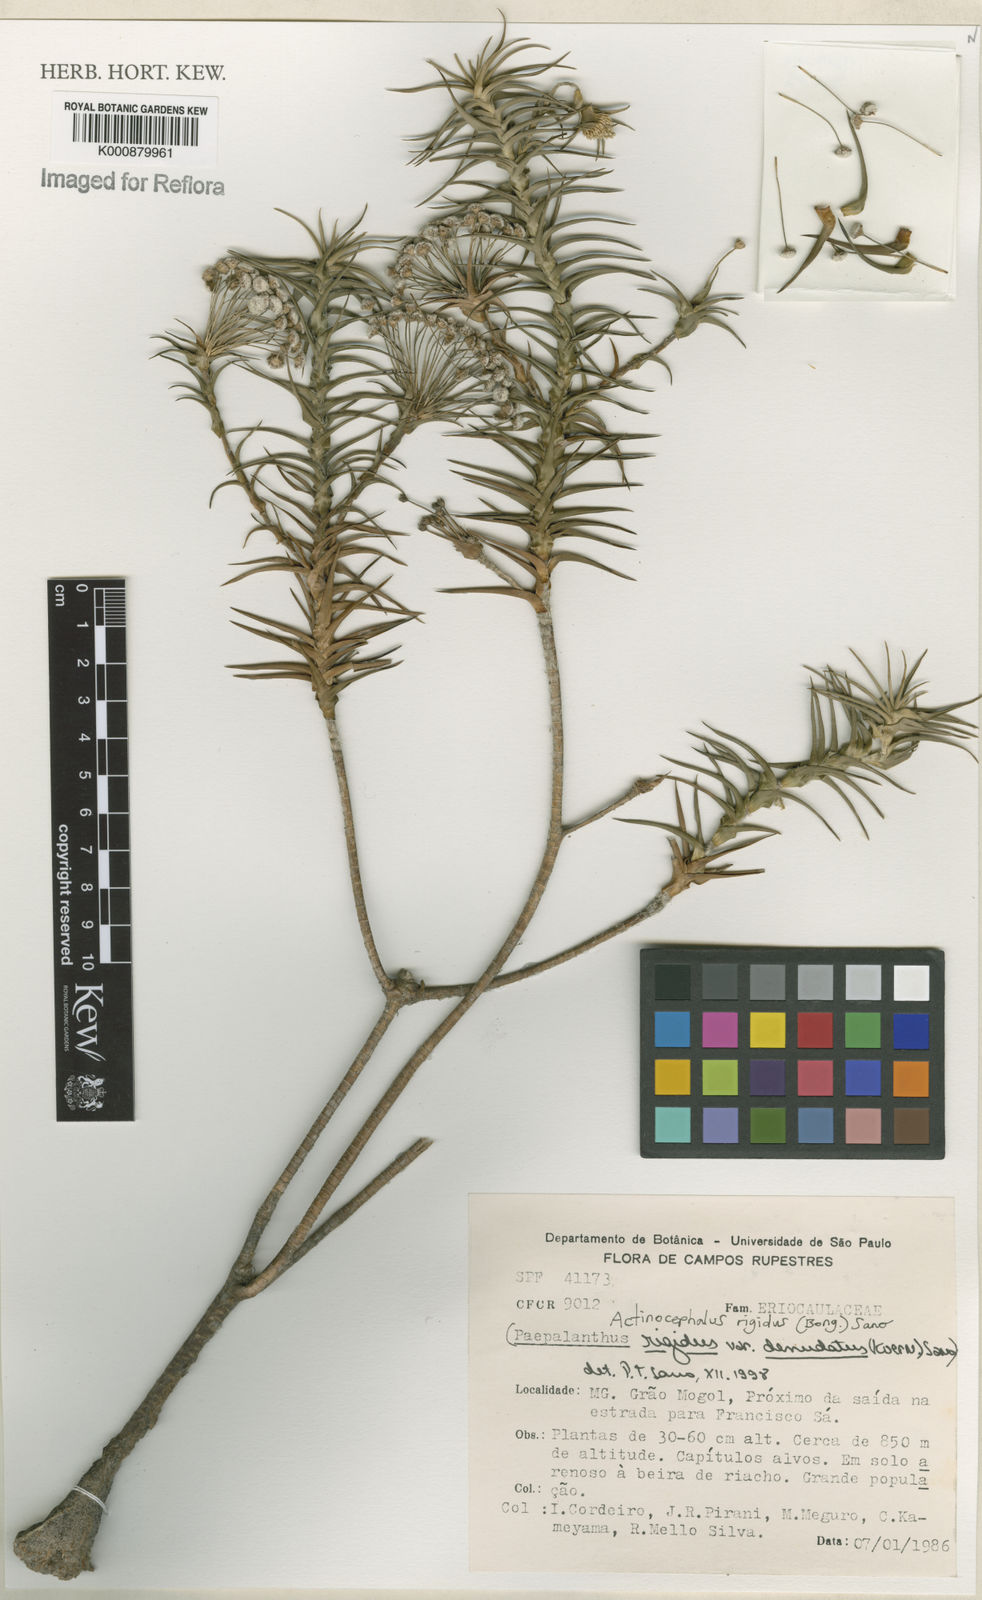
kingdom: Plantae
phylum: Tracheophyta
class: Liliopsida
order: Poales
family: Eriocaulaceae
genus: Paepalanthus
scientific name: Paepalanthus rigidus
